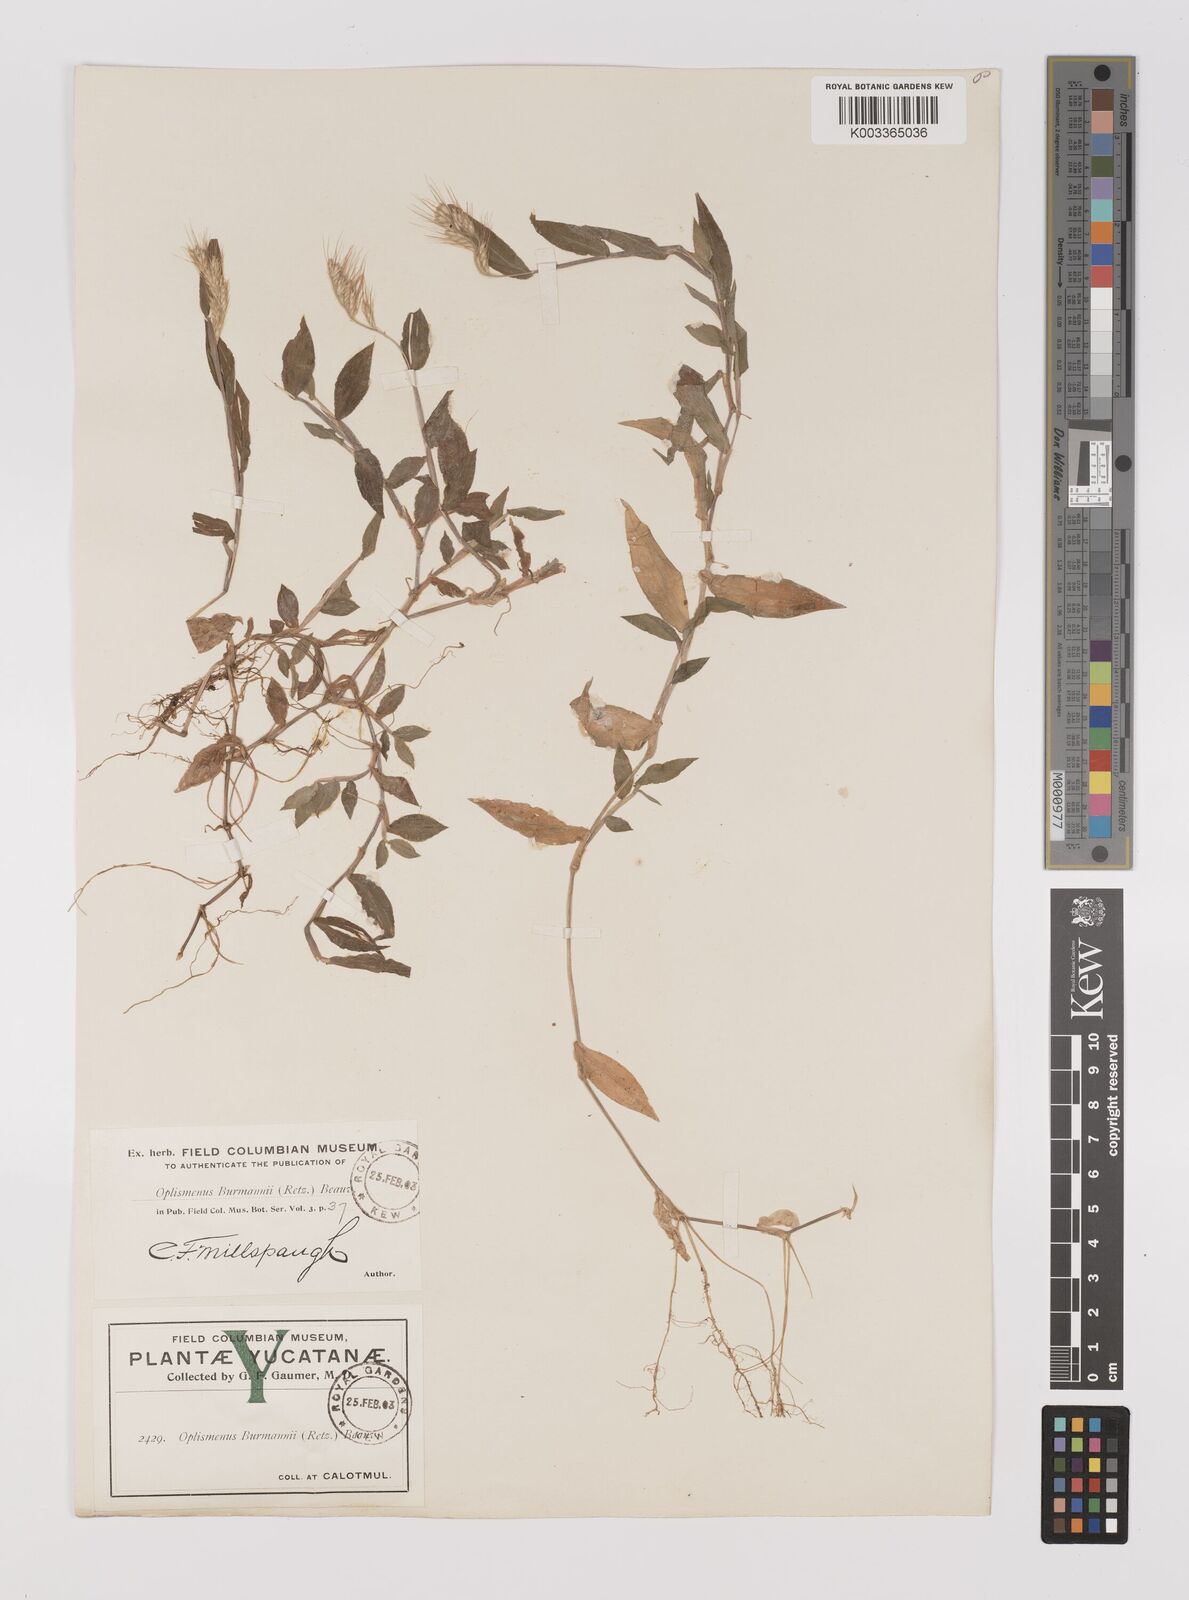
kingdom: Plantae
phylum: Tracheophyta
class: Liliopsida
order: Poales
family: Poaceae
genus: Oplismenus
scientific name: Oplismenus burmanni
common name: Burmann's basketgrass
